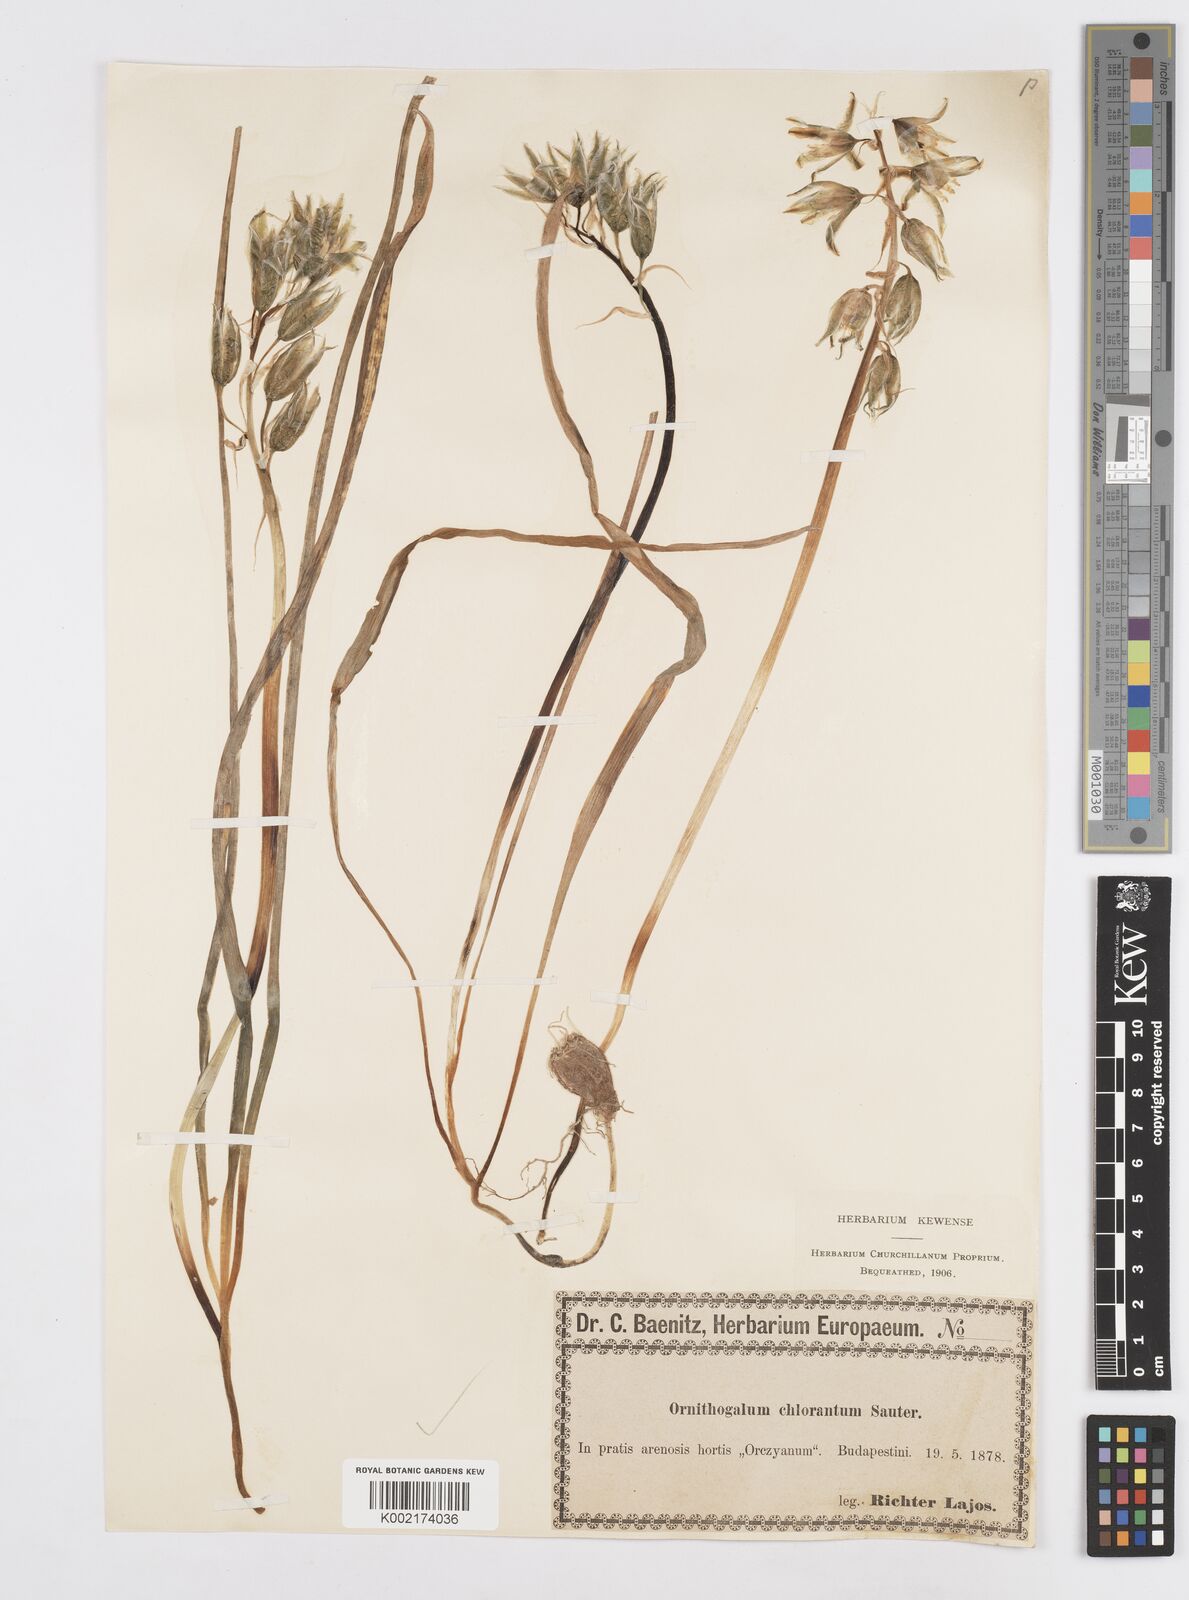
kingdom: Plantae
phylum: Tracheophyta
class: Liliopsida
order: Asparagales
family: Asparagaceae
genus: Ornithogalum
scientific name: Ornithogalum boucheanum
